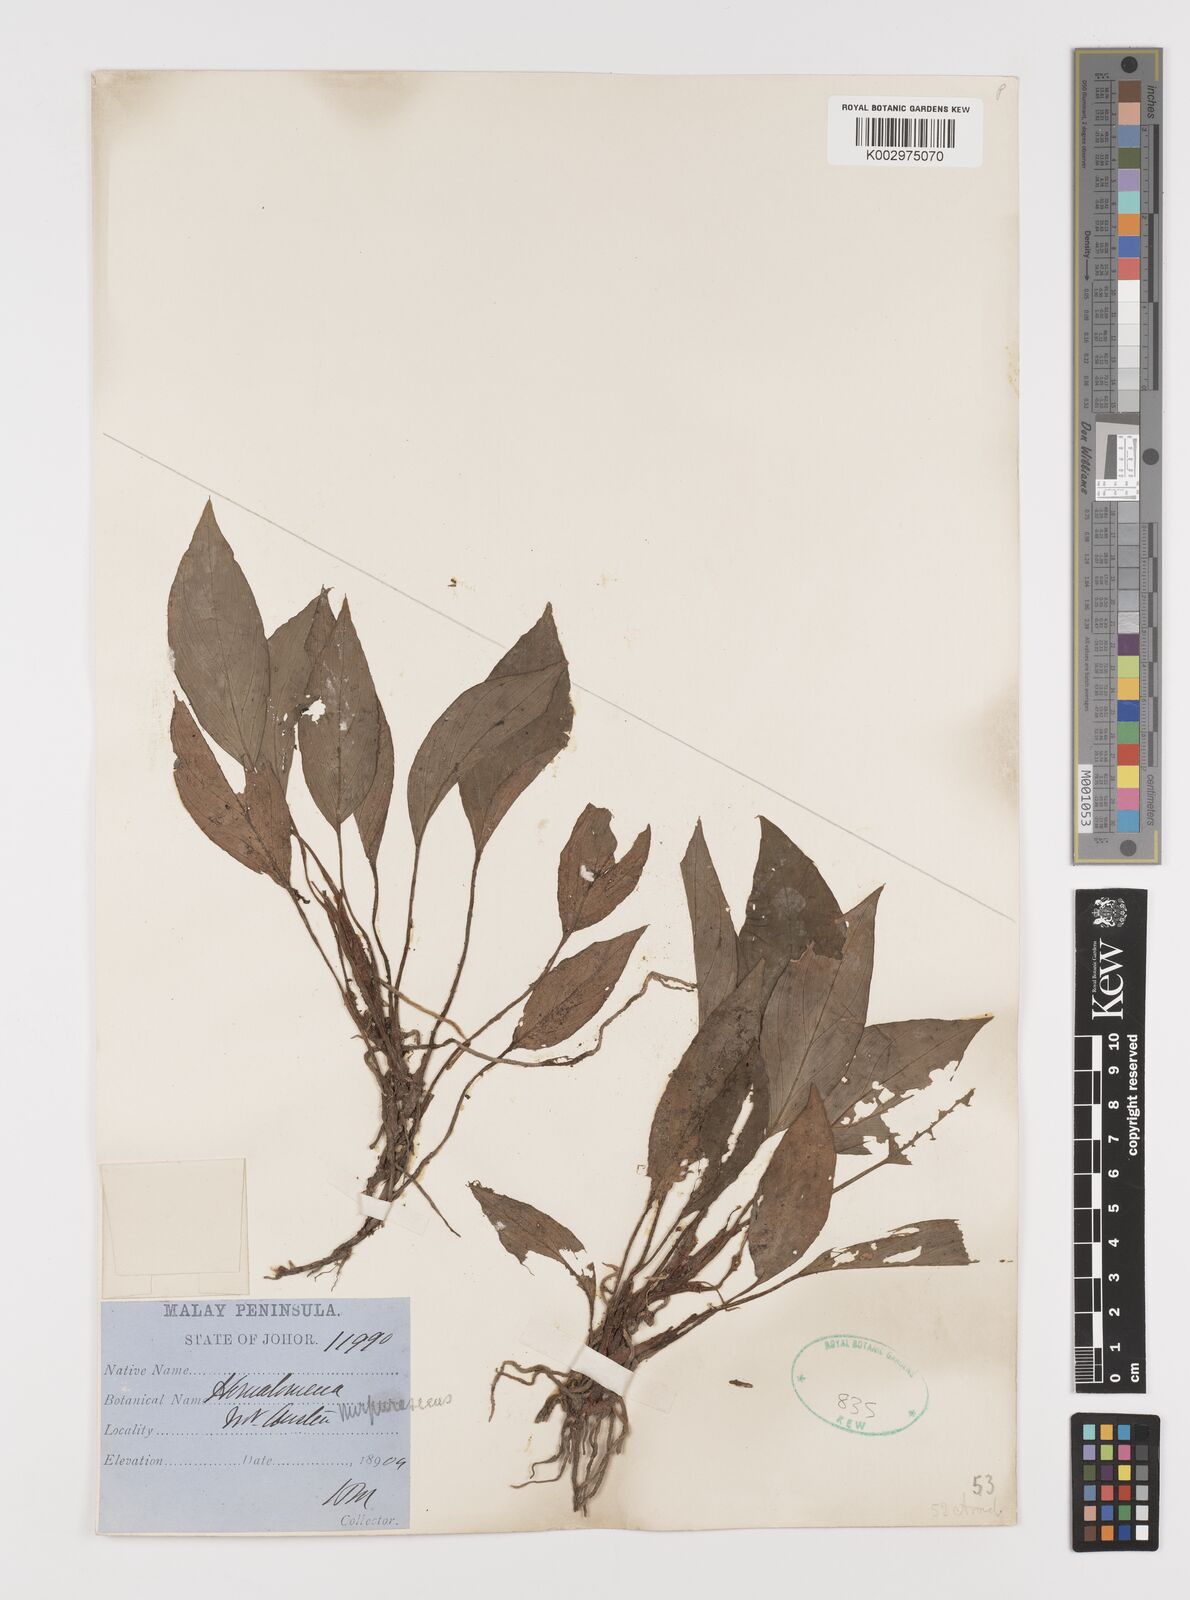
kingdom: Plantae
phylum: Tracheophyta
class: Liliopsida
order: Alismatales
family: Araceae
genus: Homalomena
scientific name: Homalomena humilis
